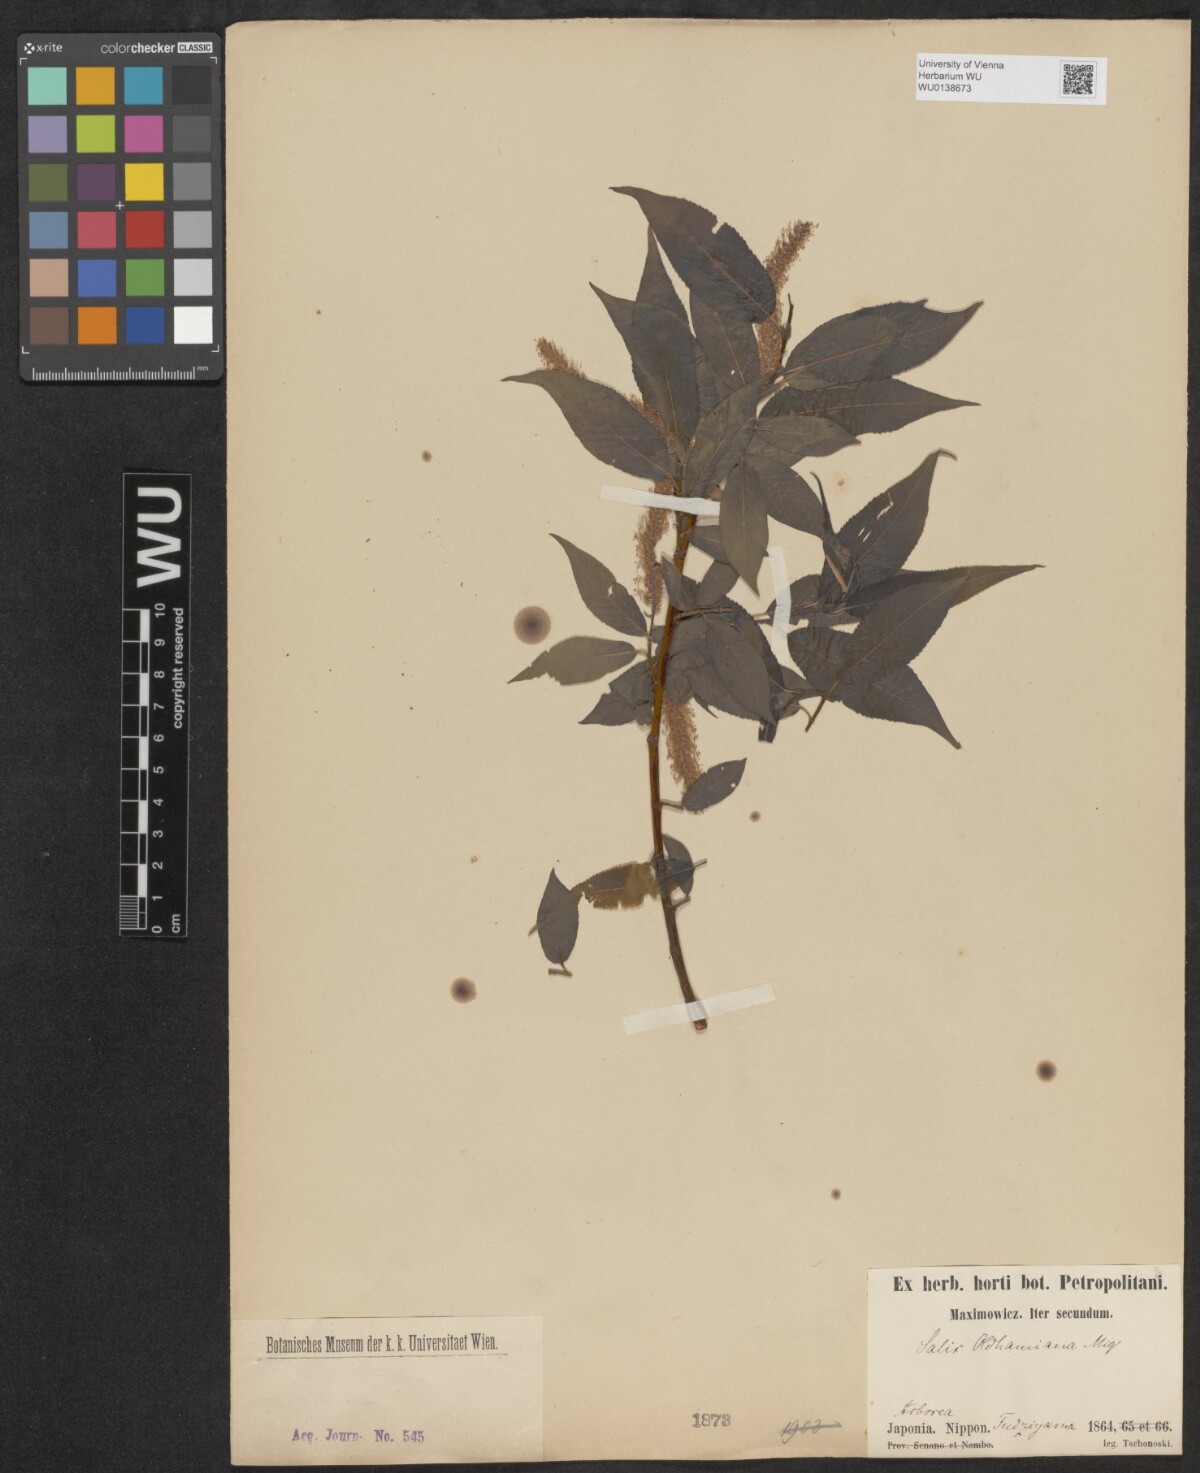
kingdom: Plantae
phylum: Tracheophyta
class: Magnoliopsida
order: Malpighiales
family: Salicaceae
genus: Salix
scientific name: Salix japonica
